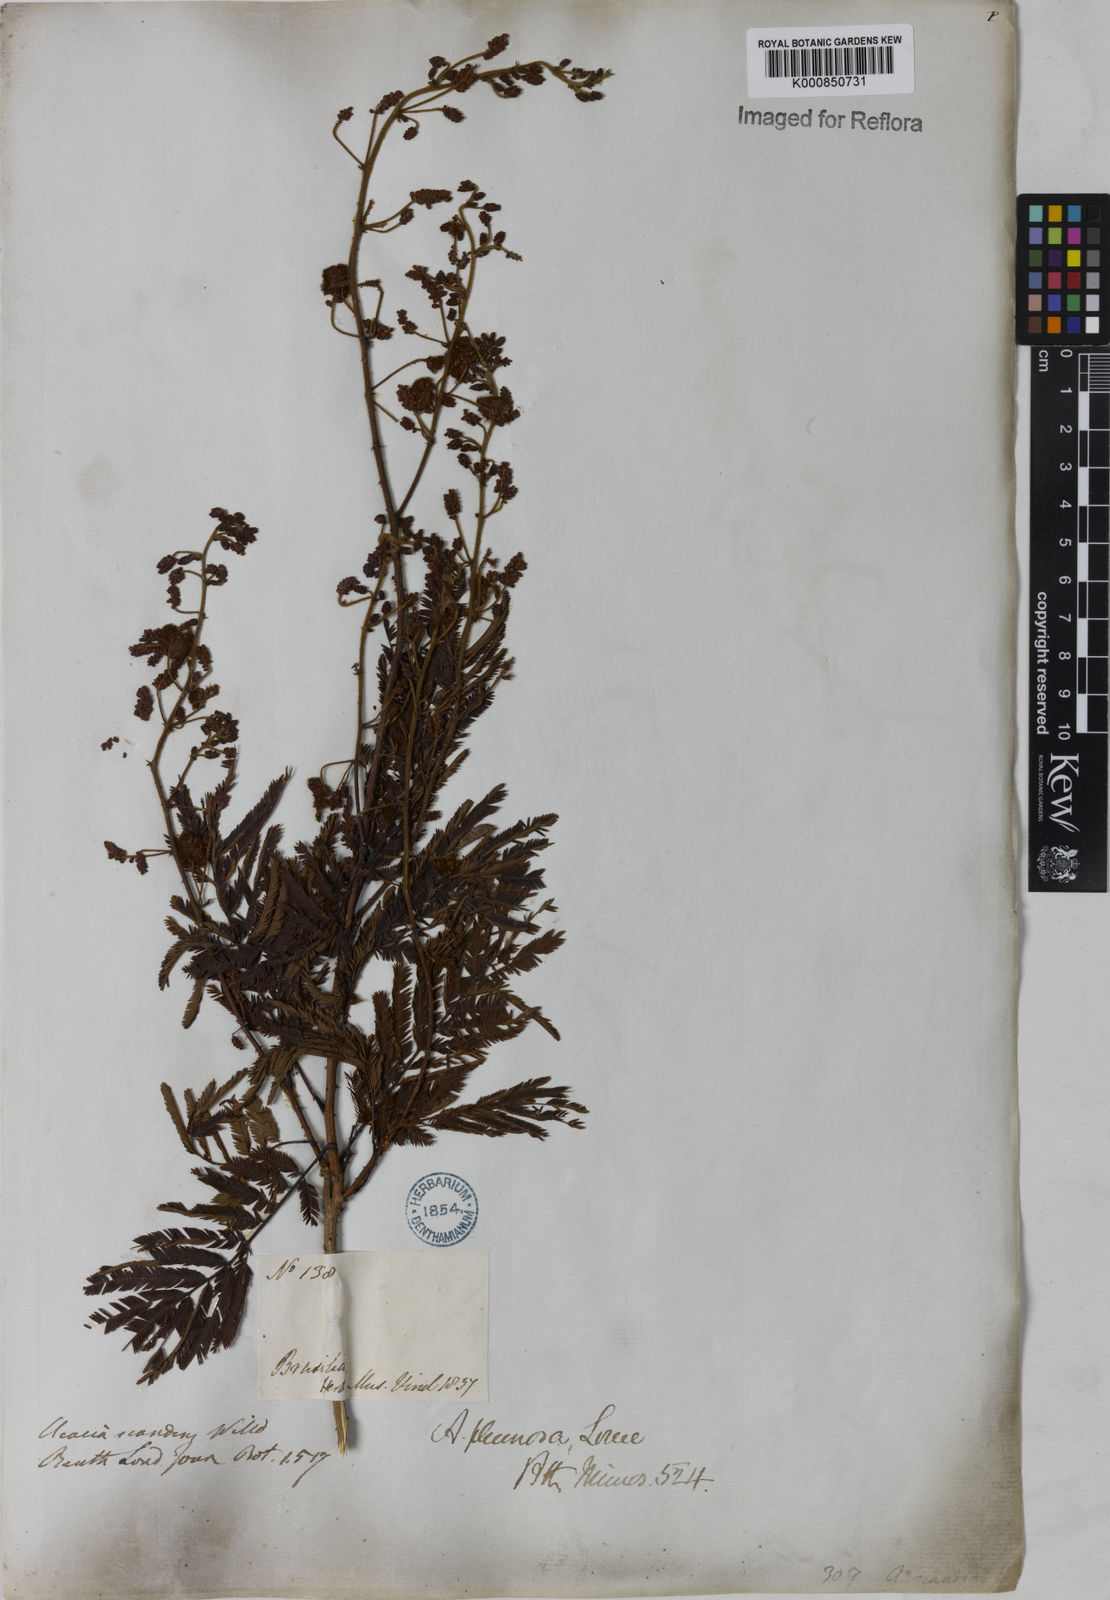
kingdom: Plantae
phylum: Tracheophyta
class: Magnoliopsida
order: Fabales
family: Fabaceae
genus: Senegalia
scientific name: Senegalia lowei
